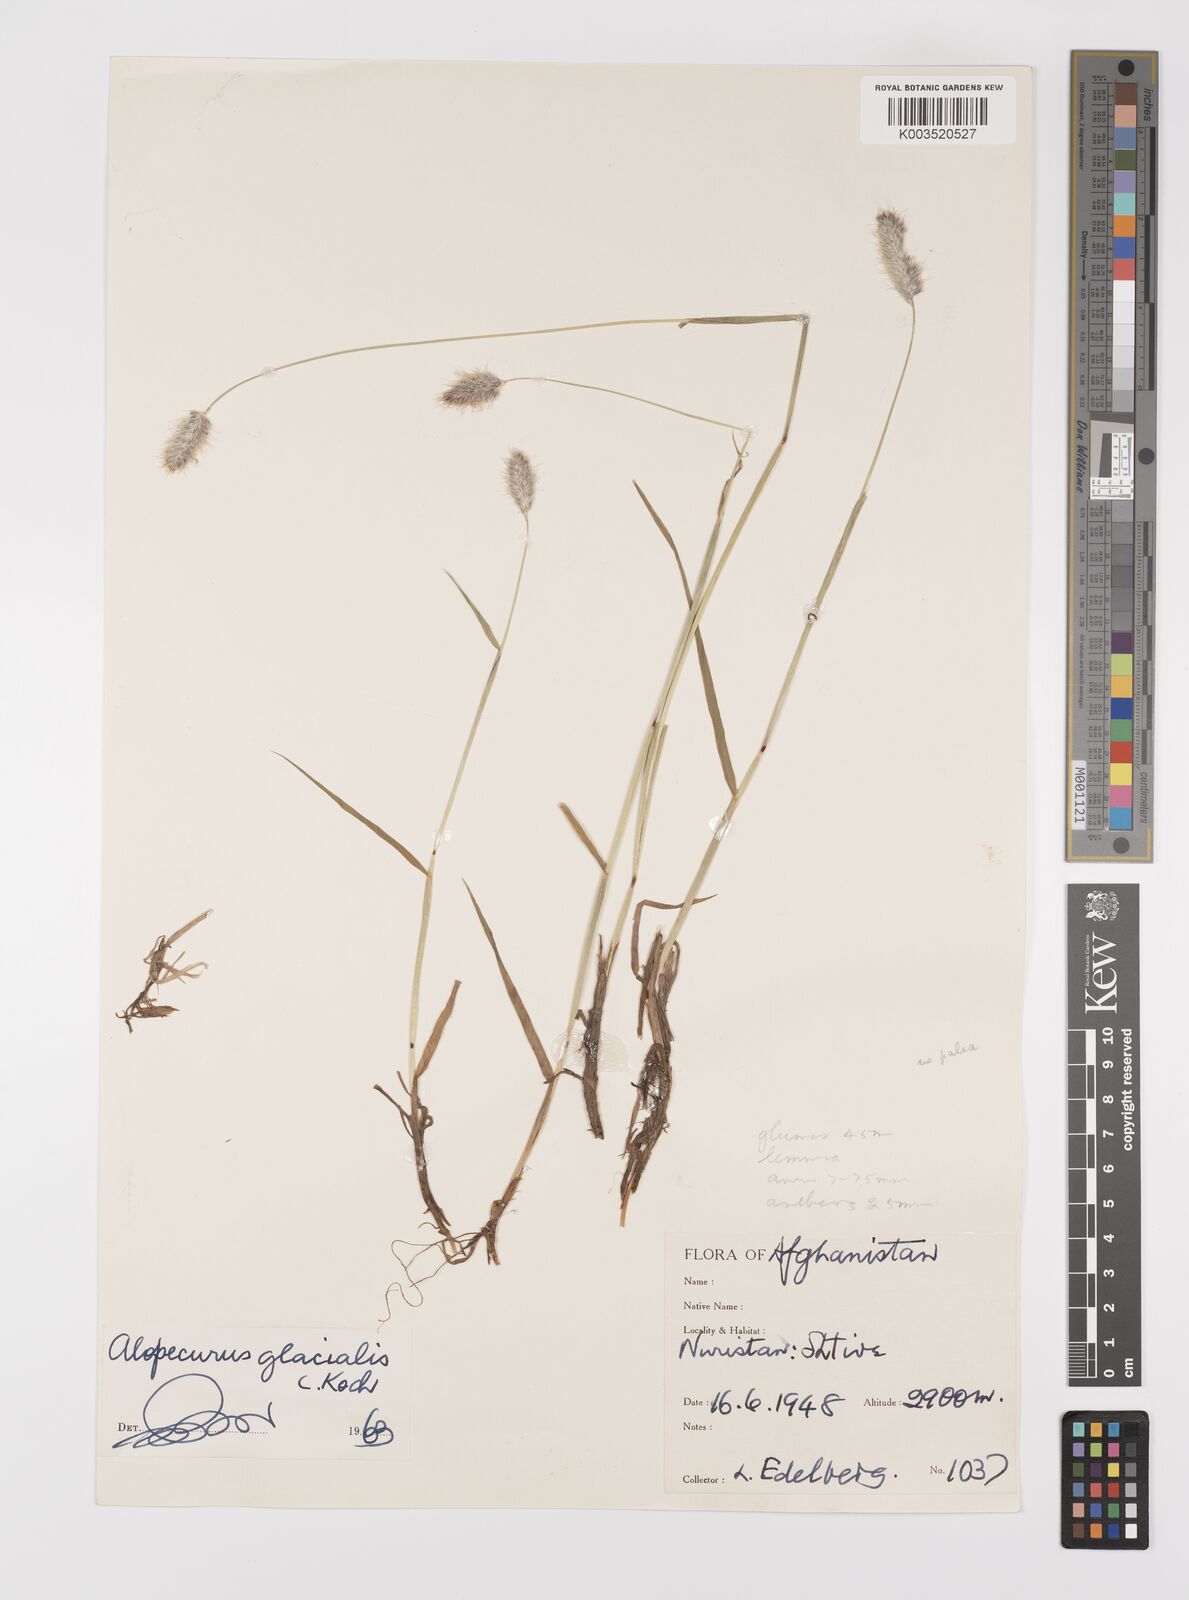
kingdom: Plantae
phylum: Tracheophyta
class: Liliopsida
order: Poales
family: Poaceae
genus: Alopecurus
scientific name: Alopecurus glacialis
